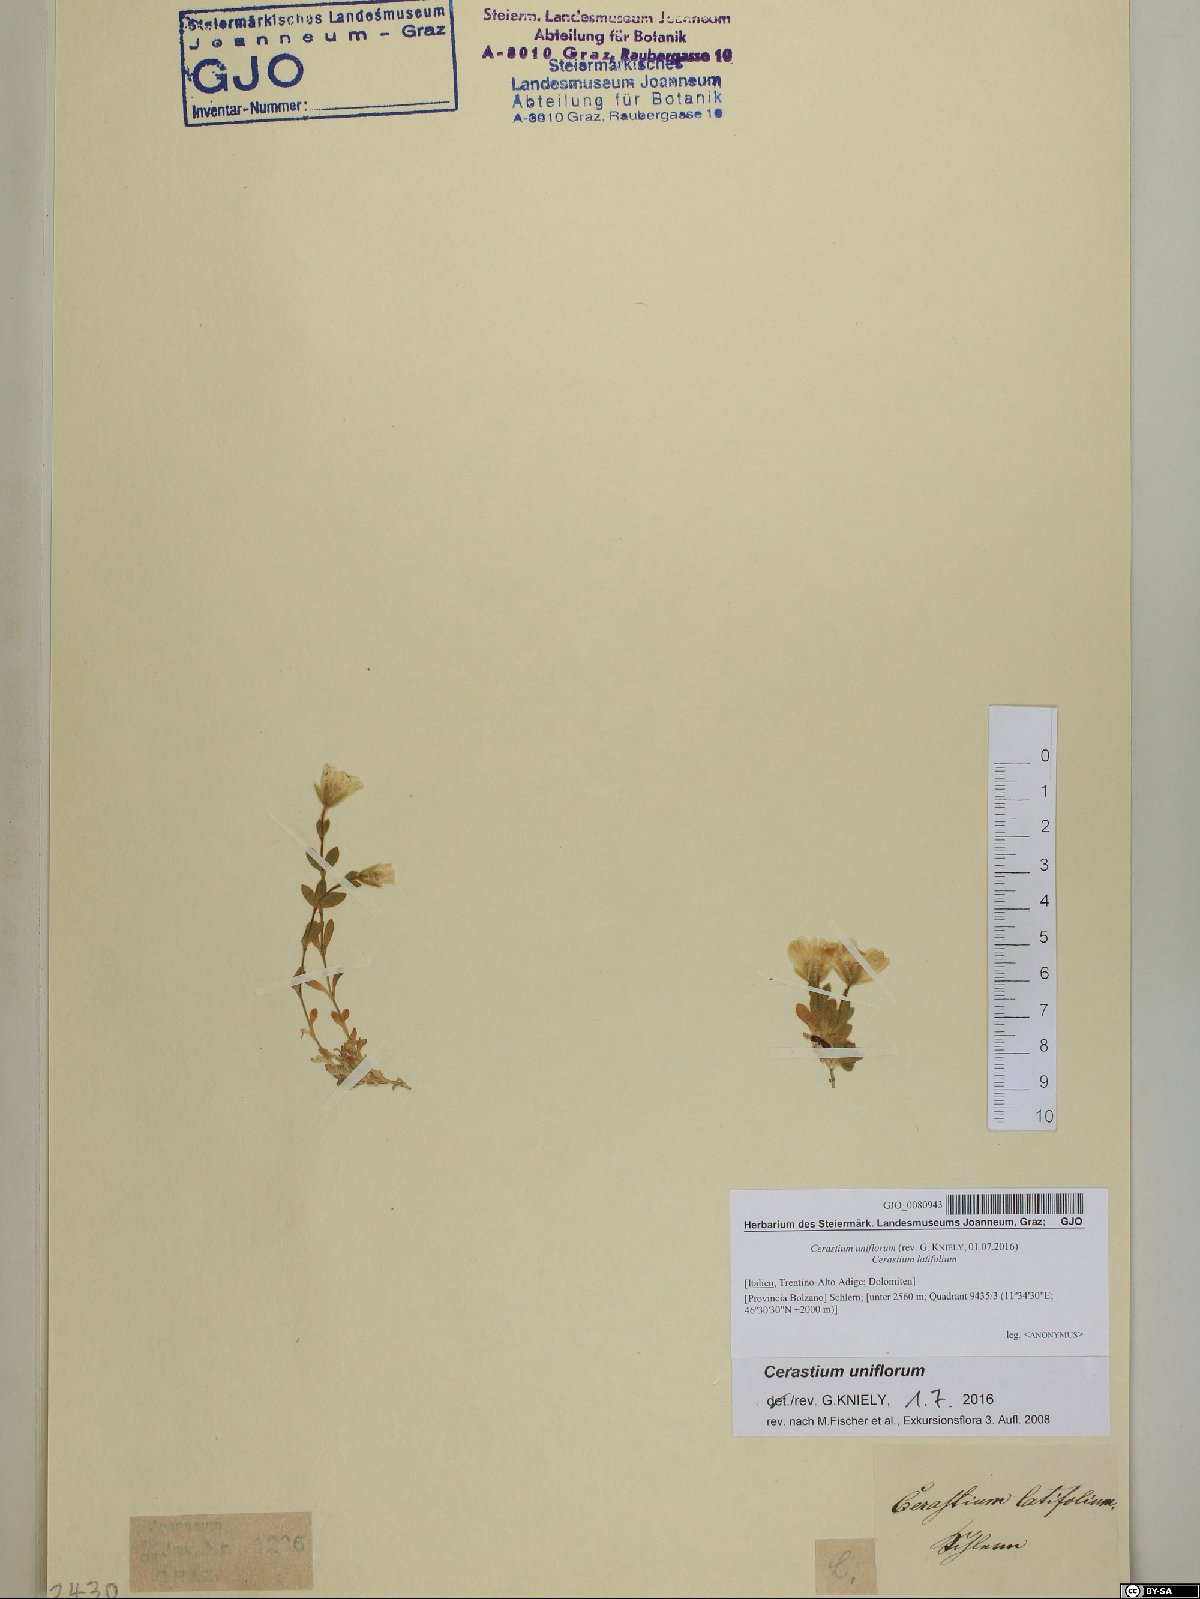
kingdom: Plantae
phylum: Tracheophyta
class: Magnoliopsida
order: Caryophyllales
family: Caryophyllaceae
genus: Cerastium
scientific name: Cerastium uniflorum
